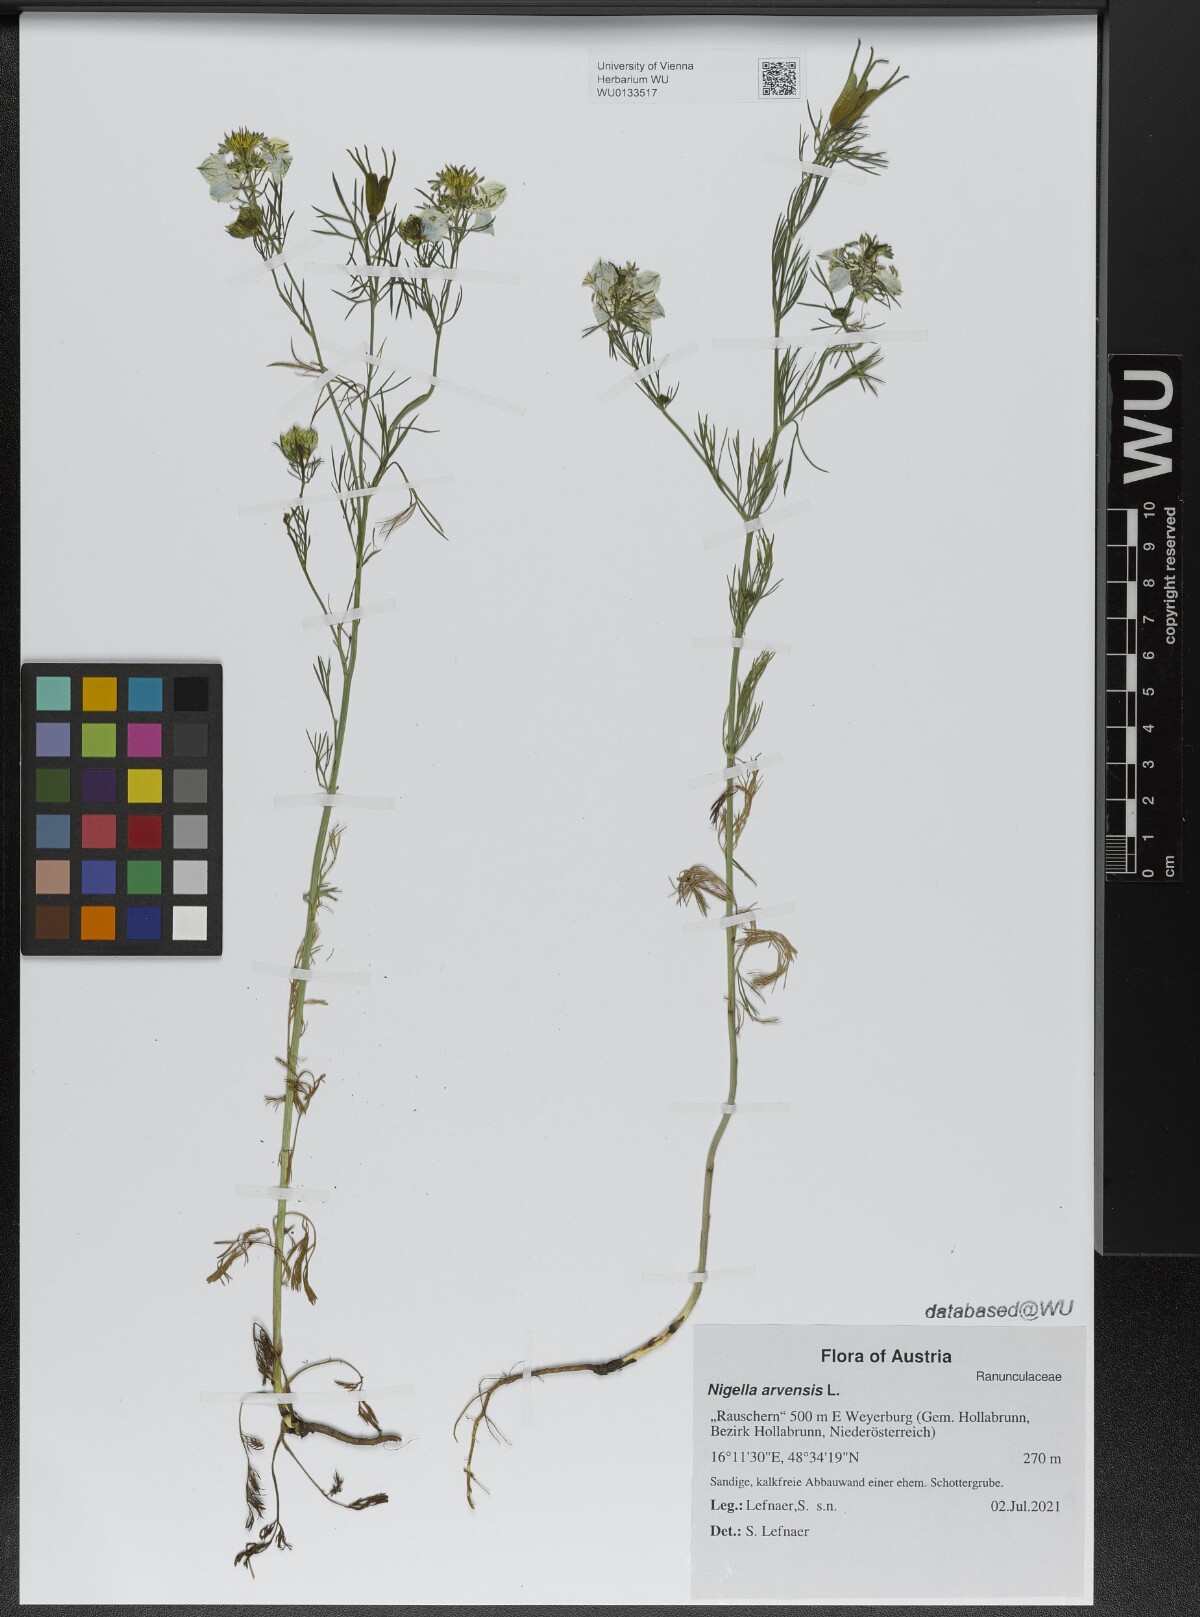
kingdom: Plantae
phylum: Tracheophyta
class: Magnoliopsida
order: Ranunculales
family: Ranunculaceae
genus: Nigella
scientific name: Nigella arvensis
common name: Wild fennel-flower
